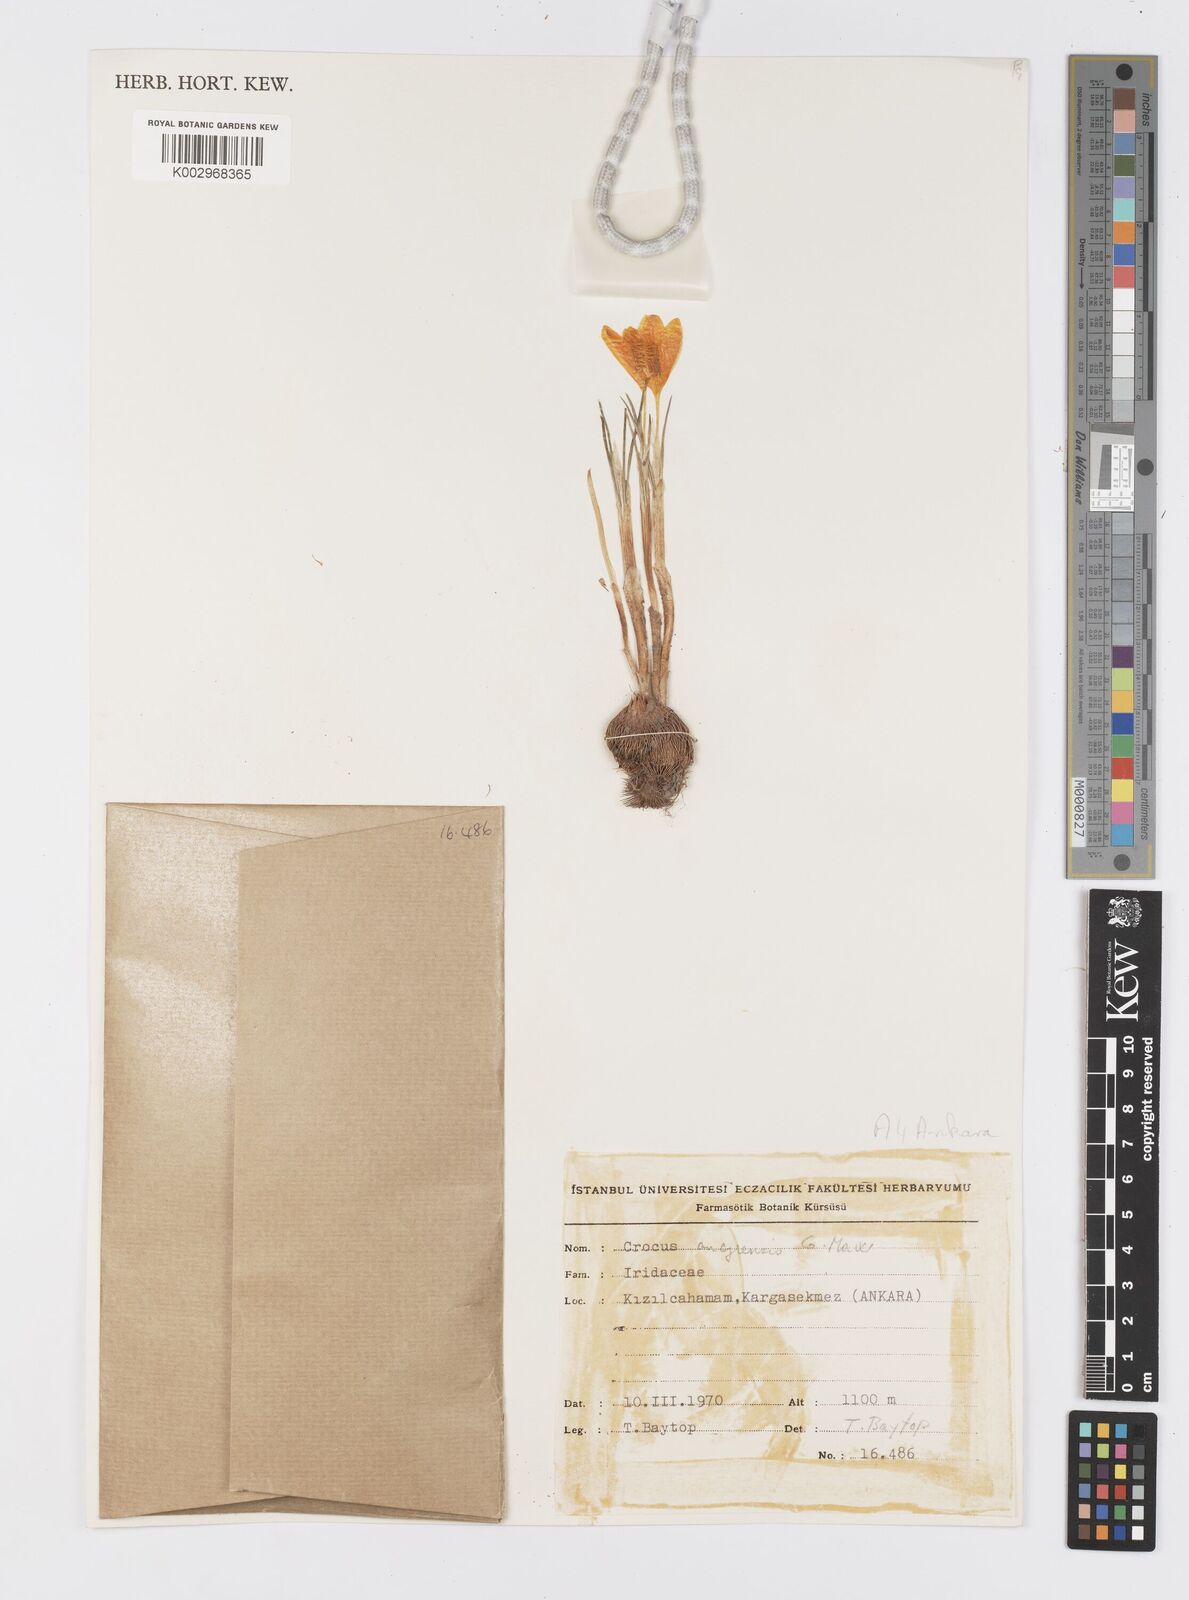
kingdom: Plantae
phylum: Tracheophyta
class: Liliopsida
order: Asparagales
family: Iridaceae
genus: Crocus
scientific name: Crocus ancyrensis
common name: Ankara crocus
